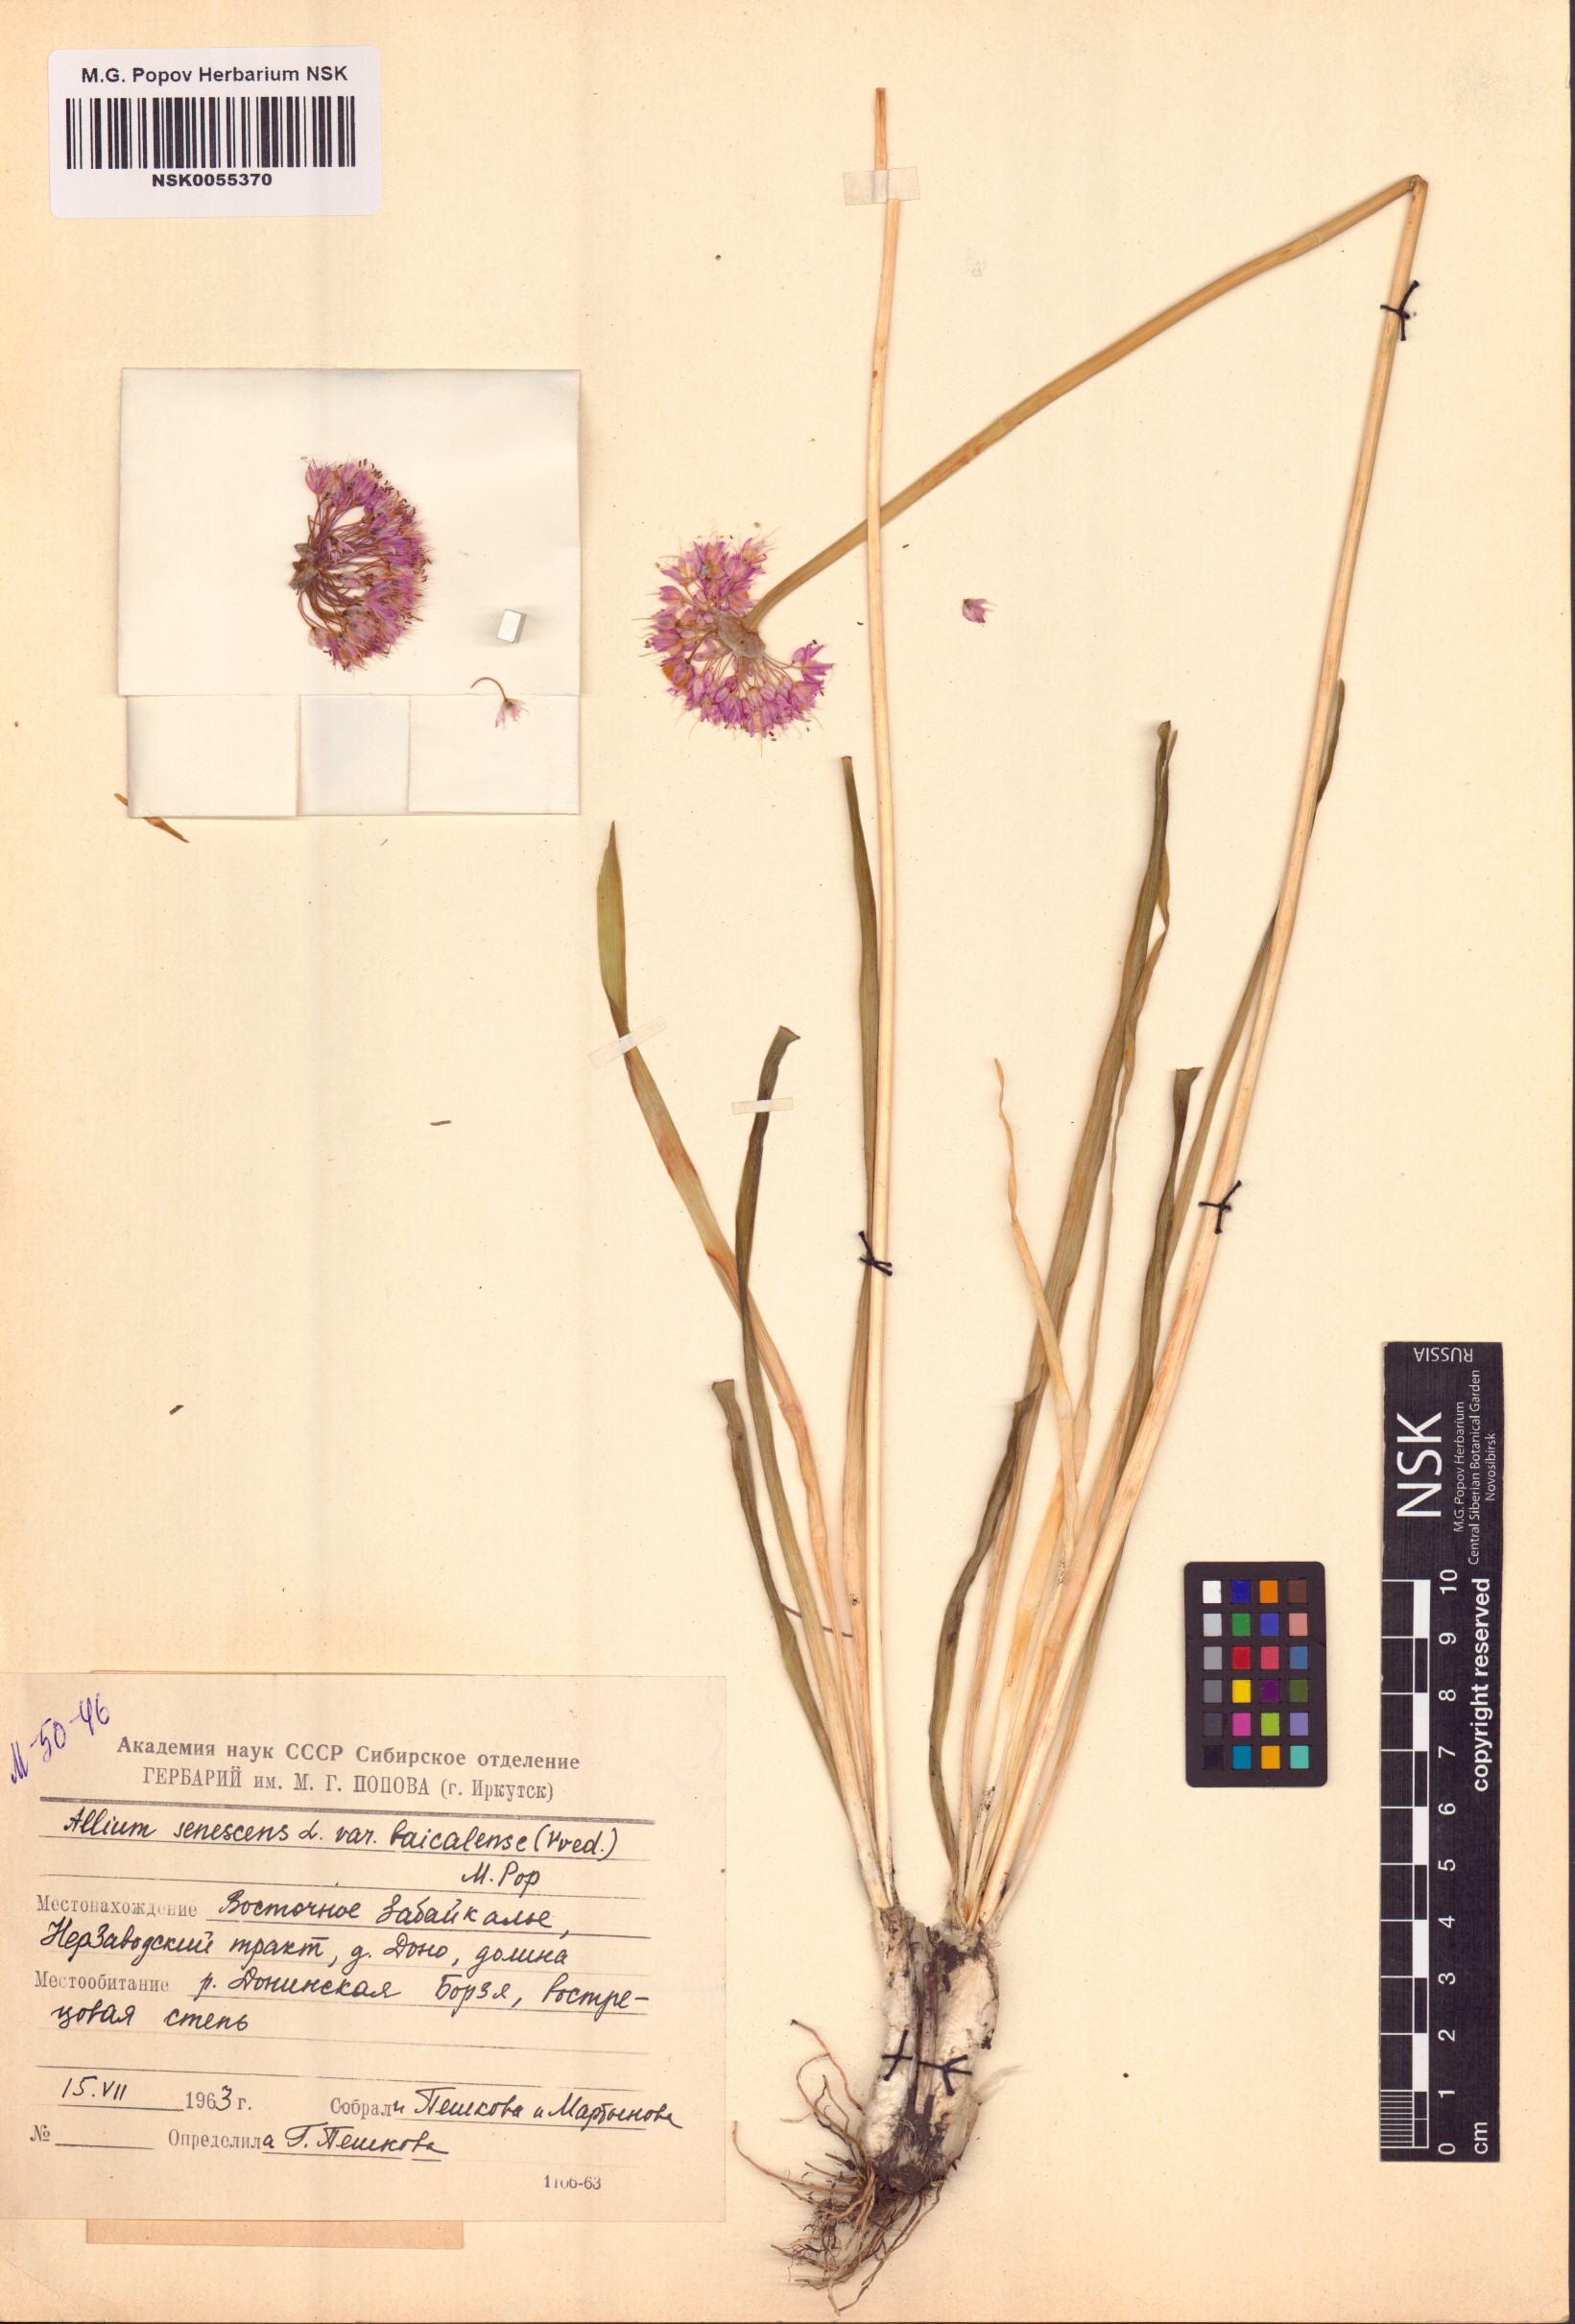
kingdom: Plantae
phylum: Tracheophyta
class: Liliopsida
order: Asparagales
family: Amaryllidaceae
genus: Allium
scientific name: Allium senescens
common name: German garlic
